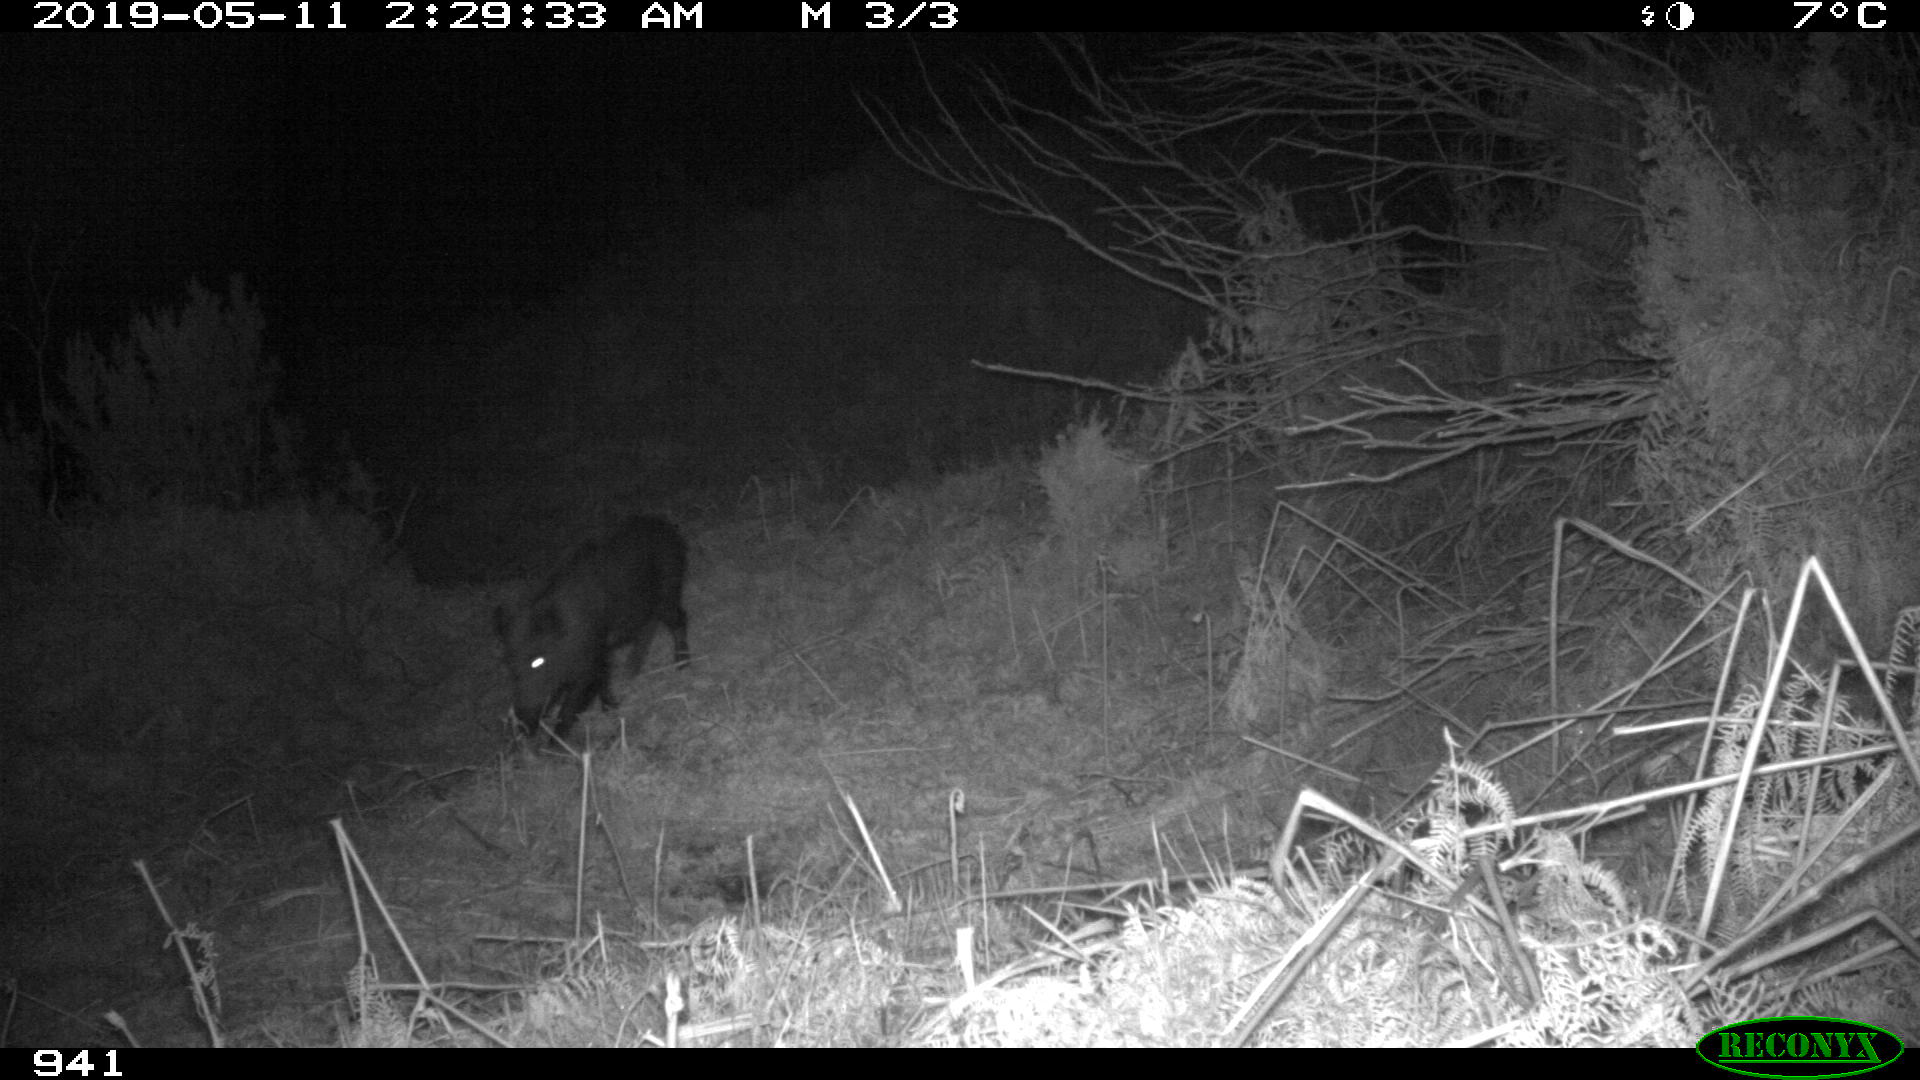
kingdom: Animalia
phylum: Chordata
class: Mammalia
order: Artiodactyla
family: Suidae
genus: Sus
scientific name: Sus scrofa
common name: Wild boar
